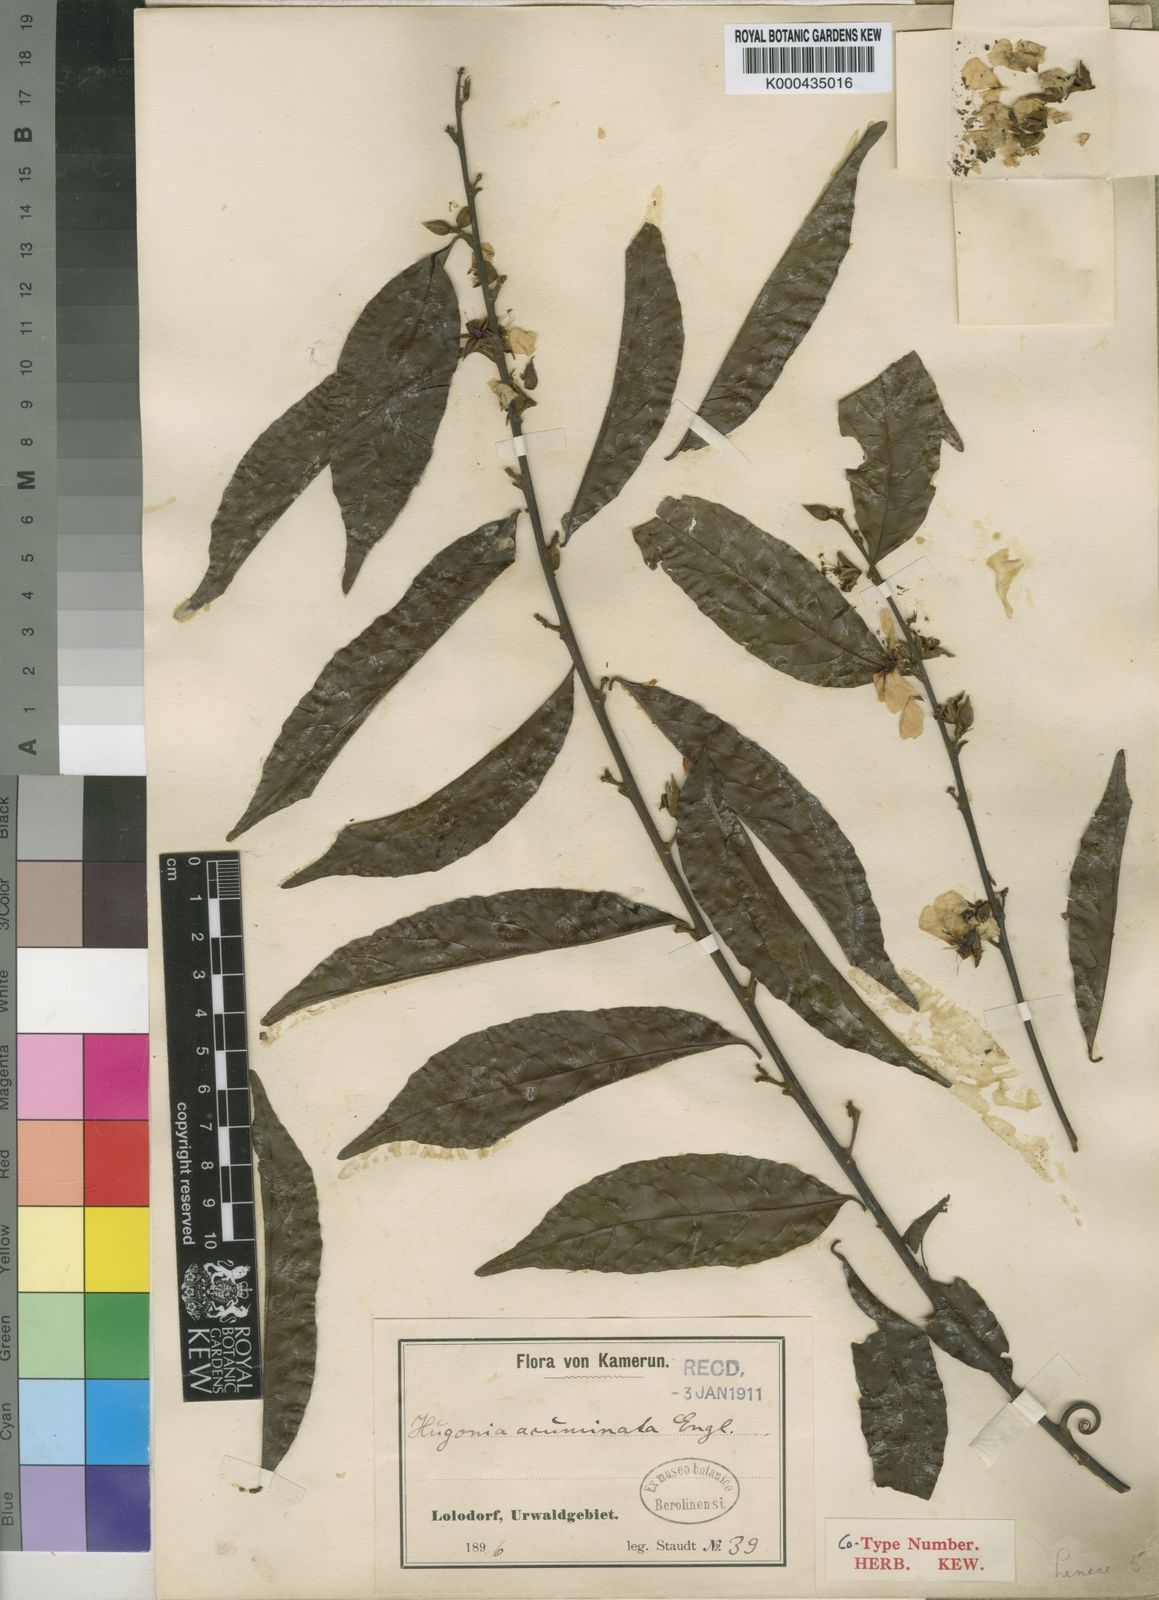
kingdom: Plantae
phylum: Tracheophyta
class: Magnoliopsida
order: Malpighiales
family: Linaceae
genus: Hugonia
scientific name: Hugonia planchonii
